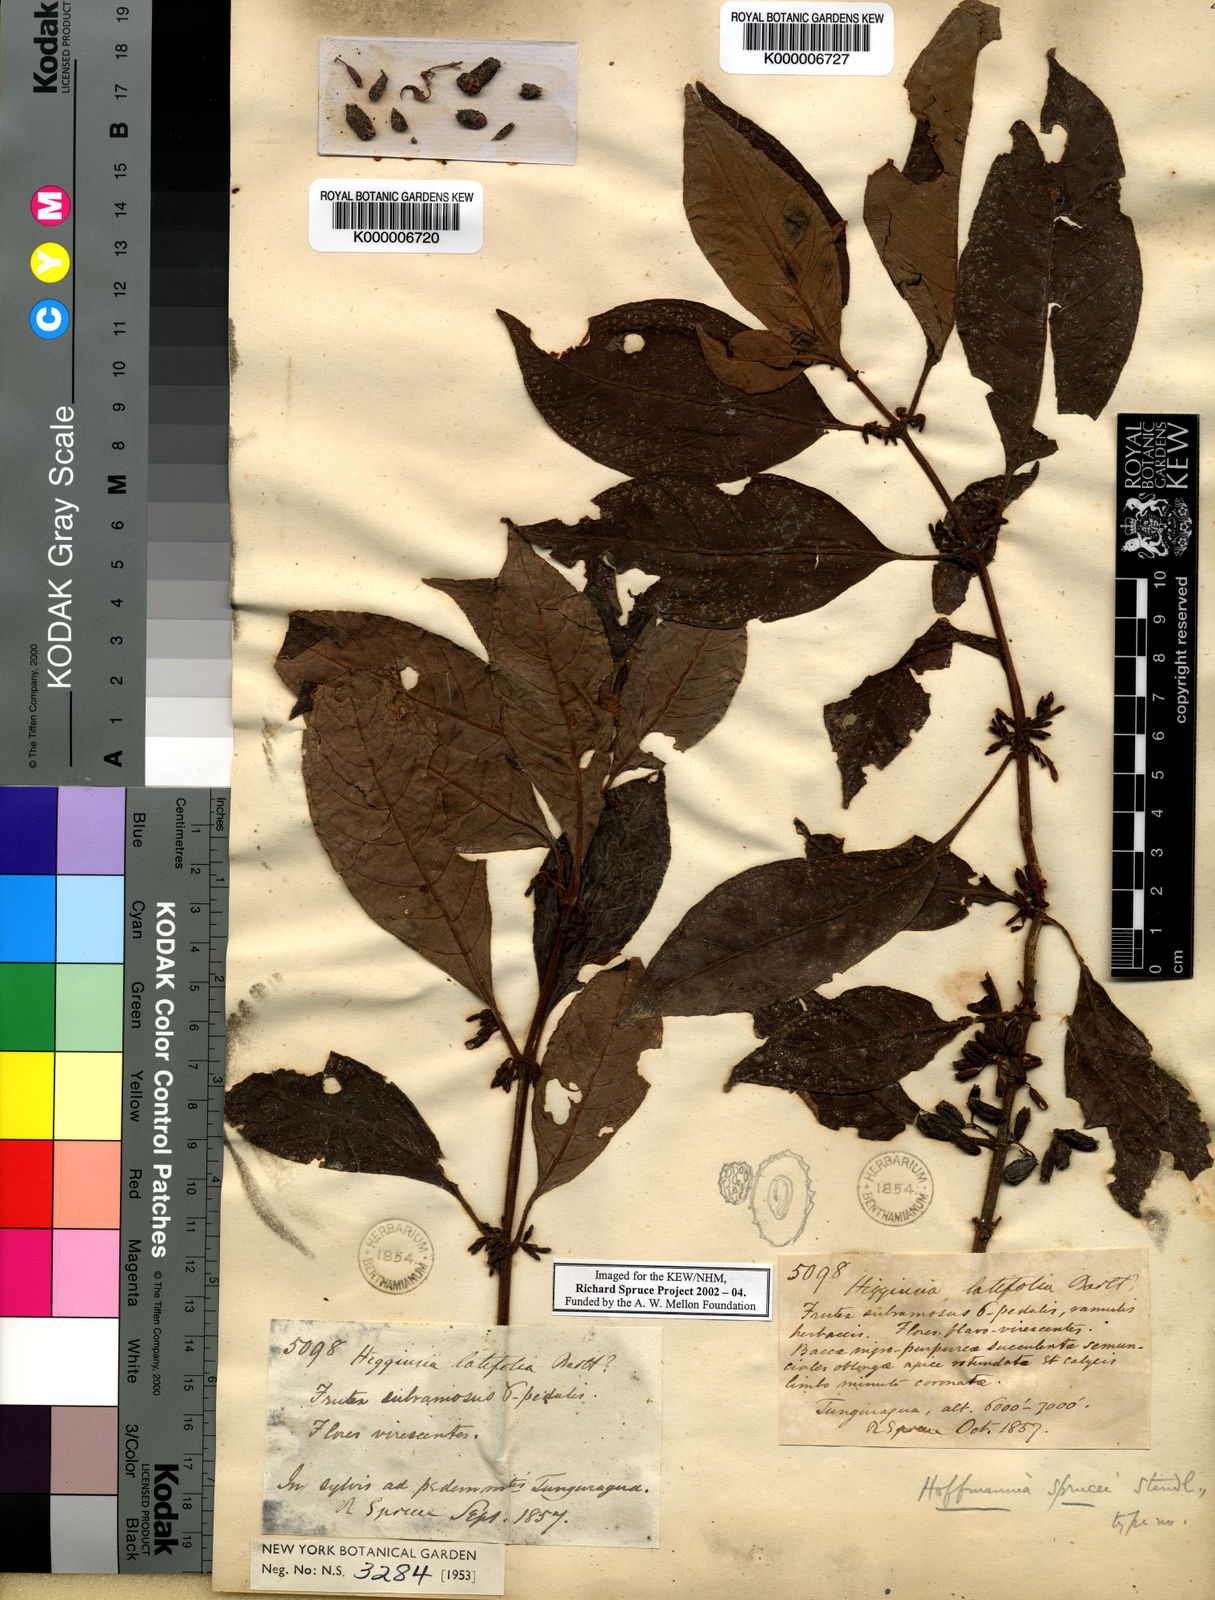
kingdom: Plantae
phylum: Tracheophyta
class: Magnoliopsida
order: Gentianales
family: Rubiaceae
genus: Hoffmannia
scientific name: Hoffmannia sprucei
